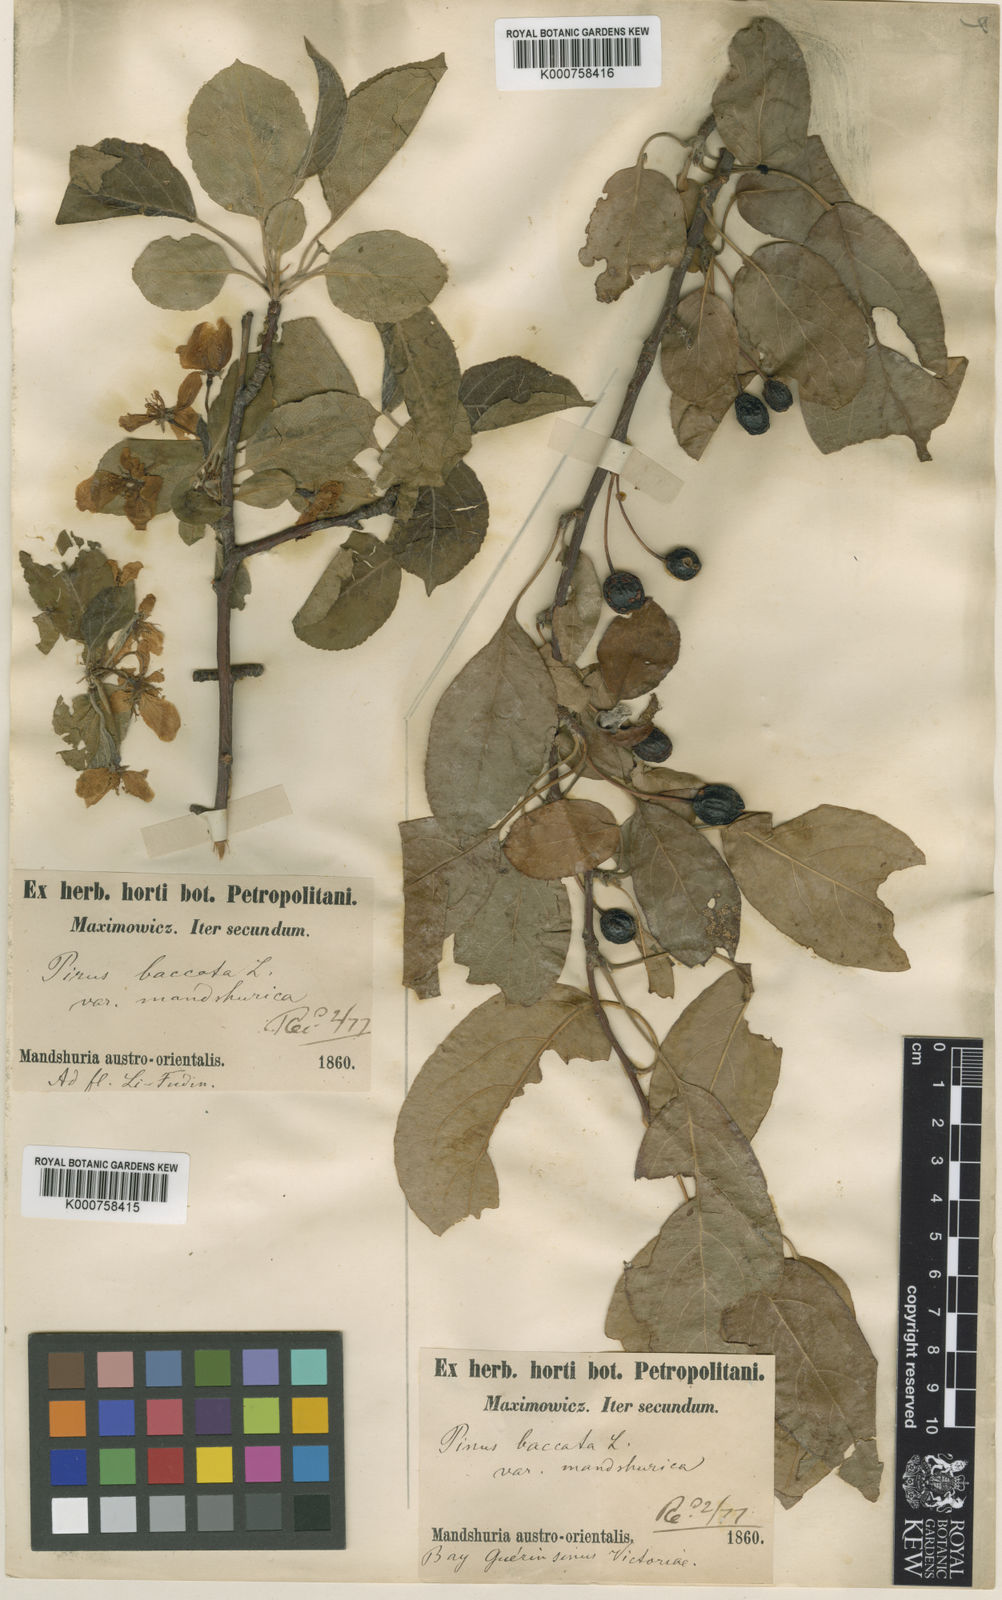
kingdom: Plantae
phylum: Tracheophyta
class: Magnoliopsida
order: Rosales
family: Rosaceae
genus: Malus
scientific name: Malus
